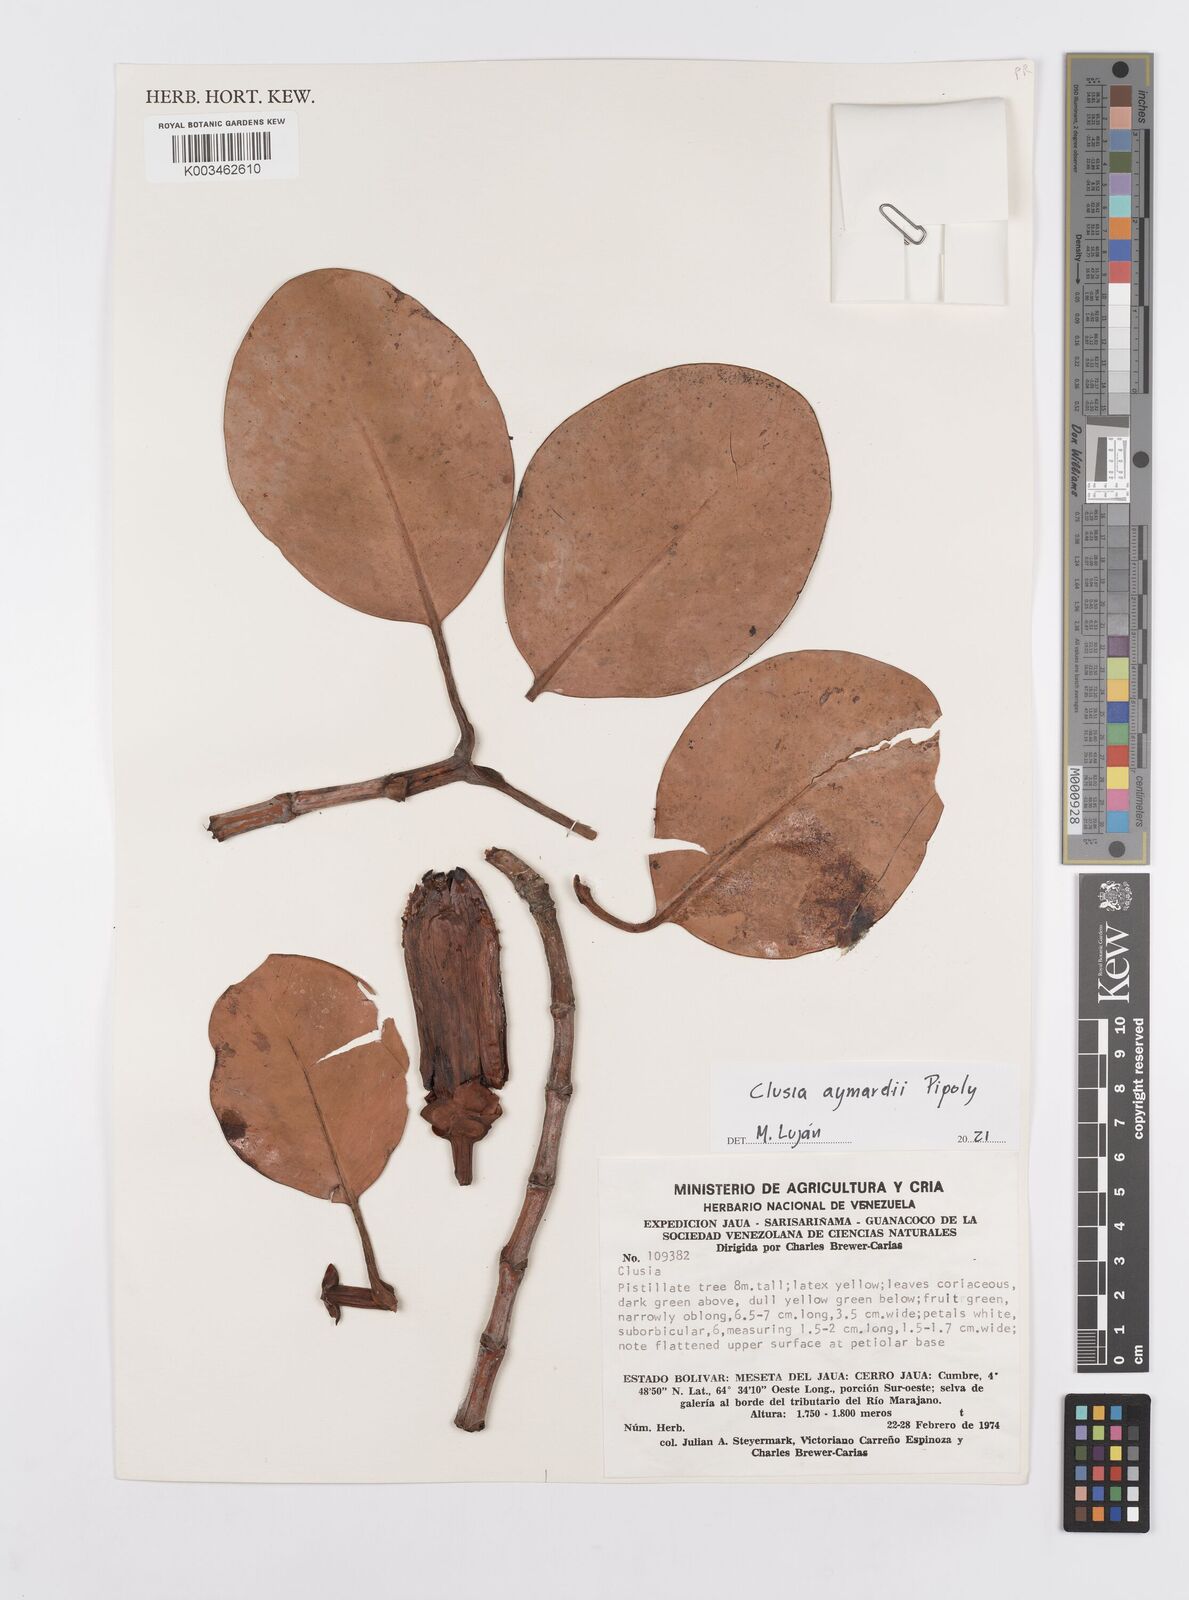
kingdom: Plantae
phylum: Tracheophyta
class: Magnoliopsida
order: Malpighiales
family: Clusiaceae
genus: Clusia
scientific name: Clusia aymardii
